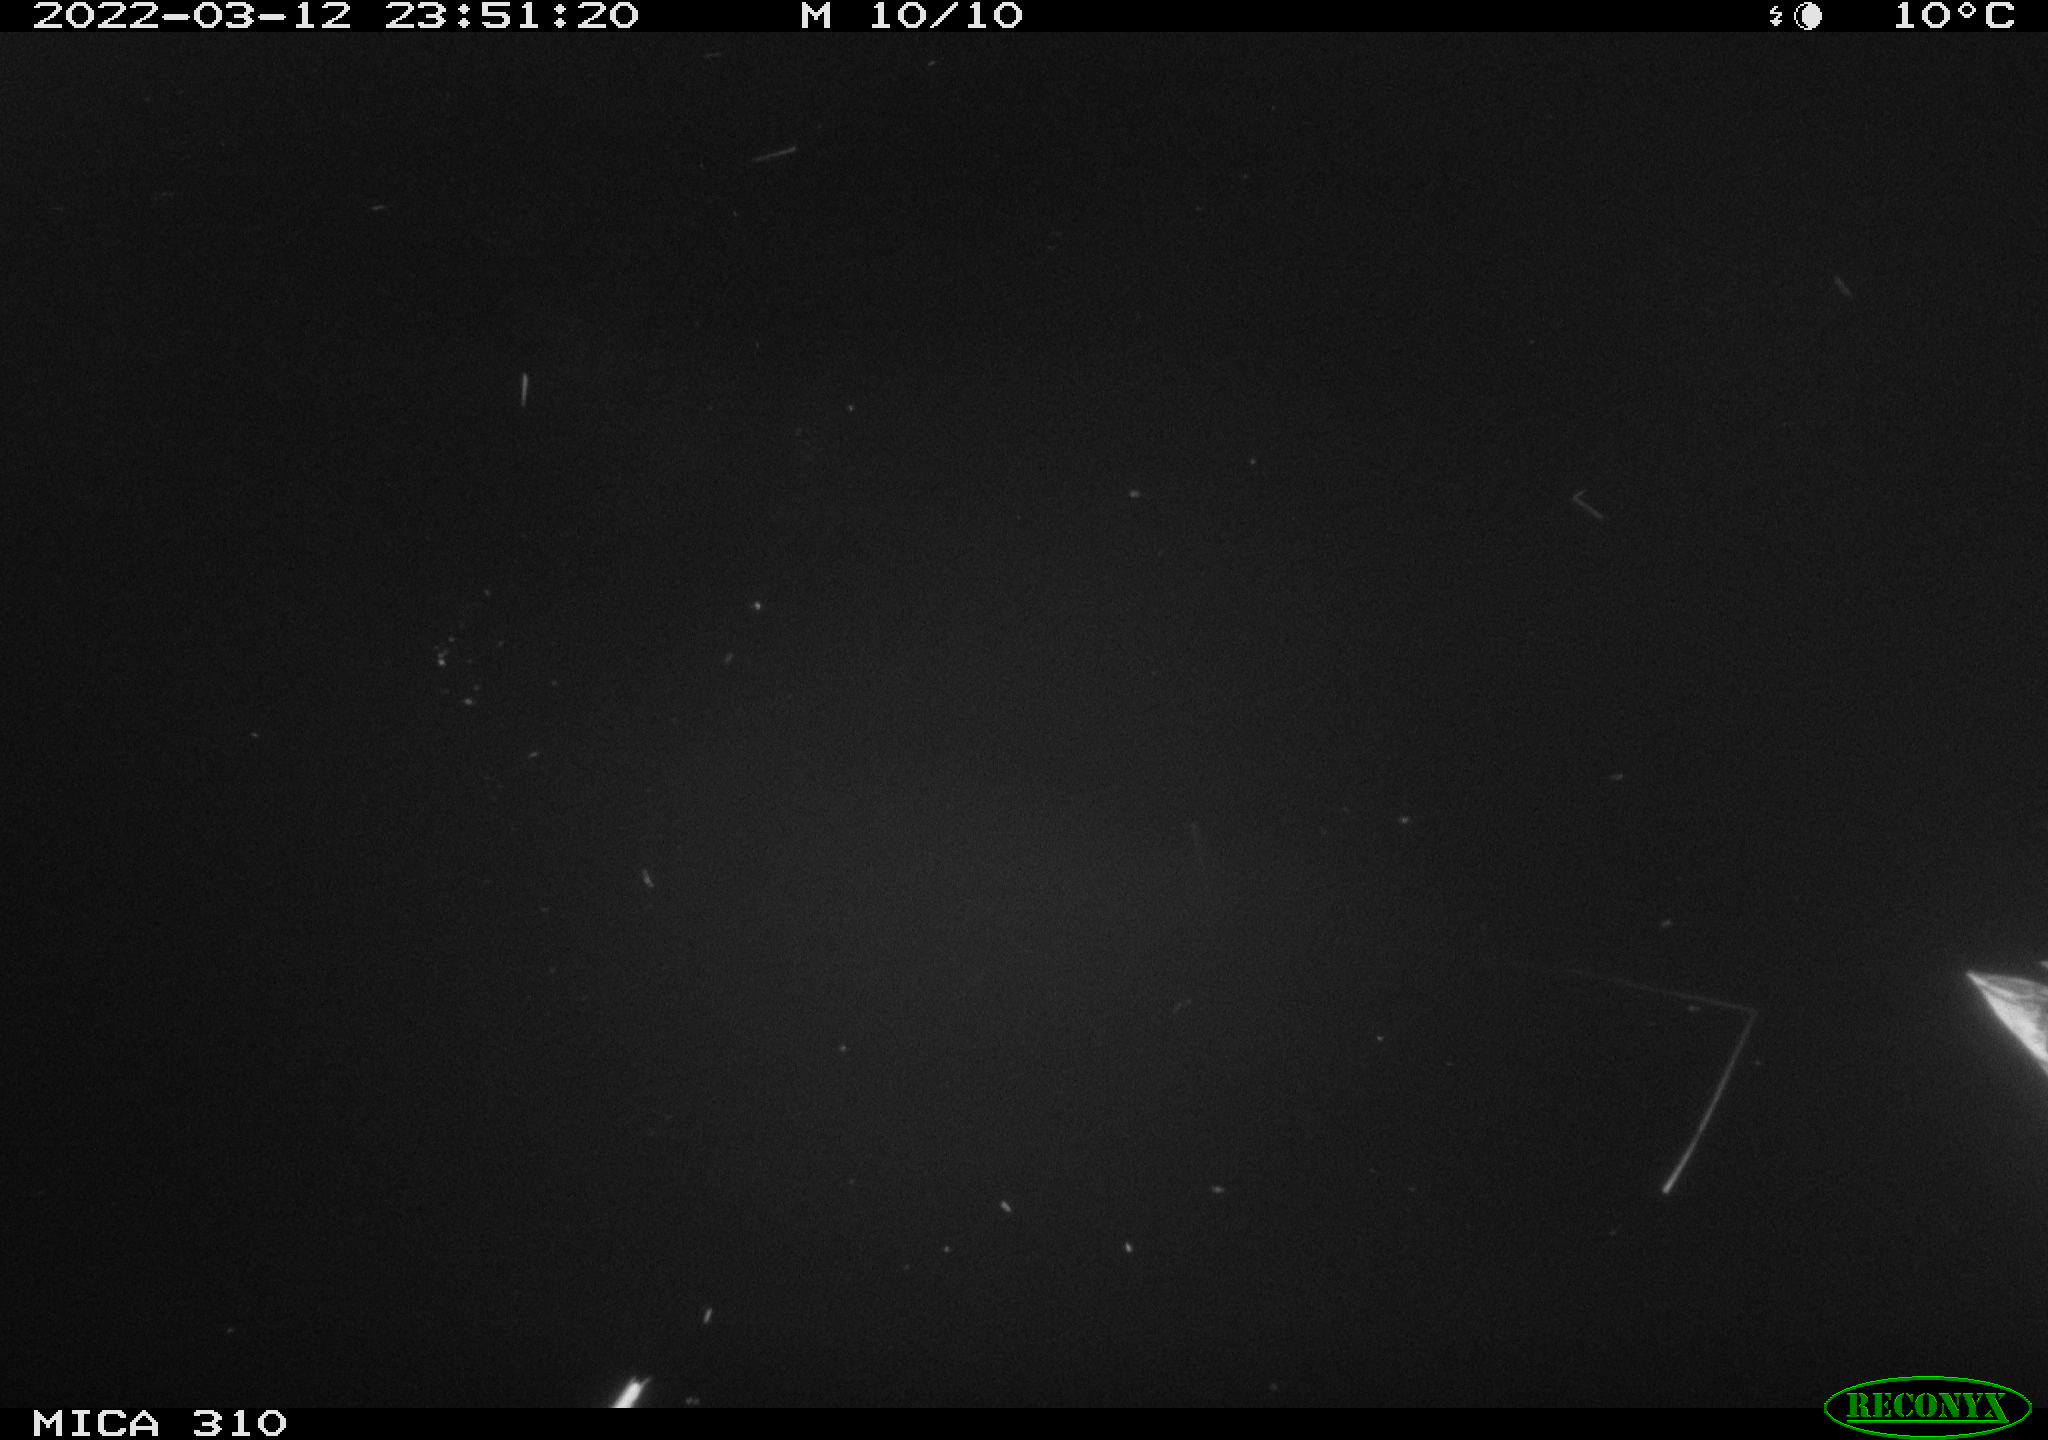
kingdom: Animalia
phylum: Chordata
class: Aves
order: Anseriformes
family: Anatidae
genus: Anas
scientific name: Anas platyrhynchos
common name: Mallard
